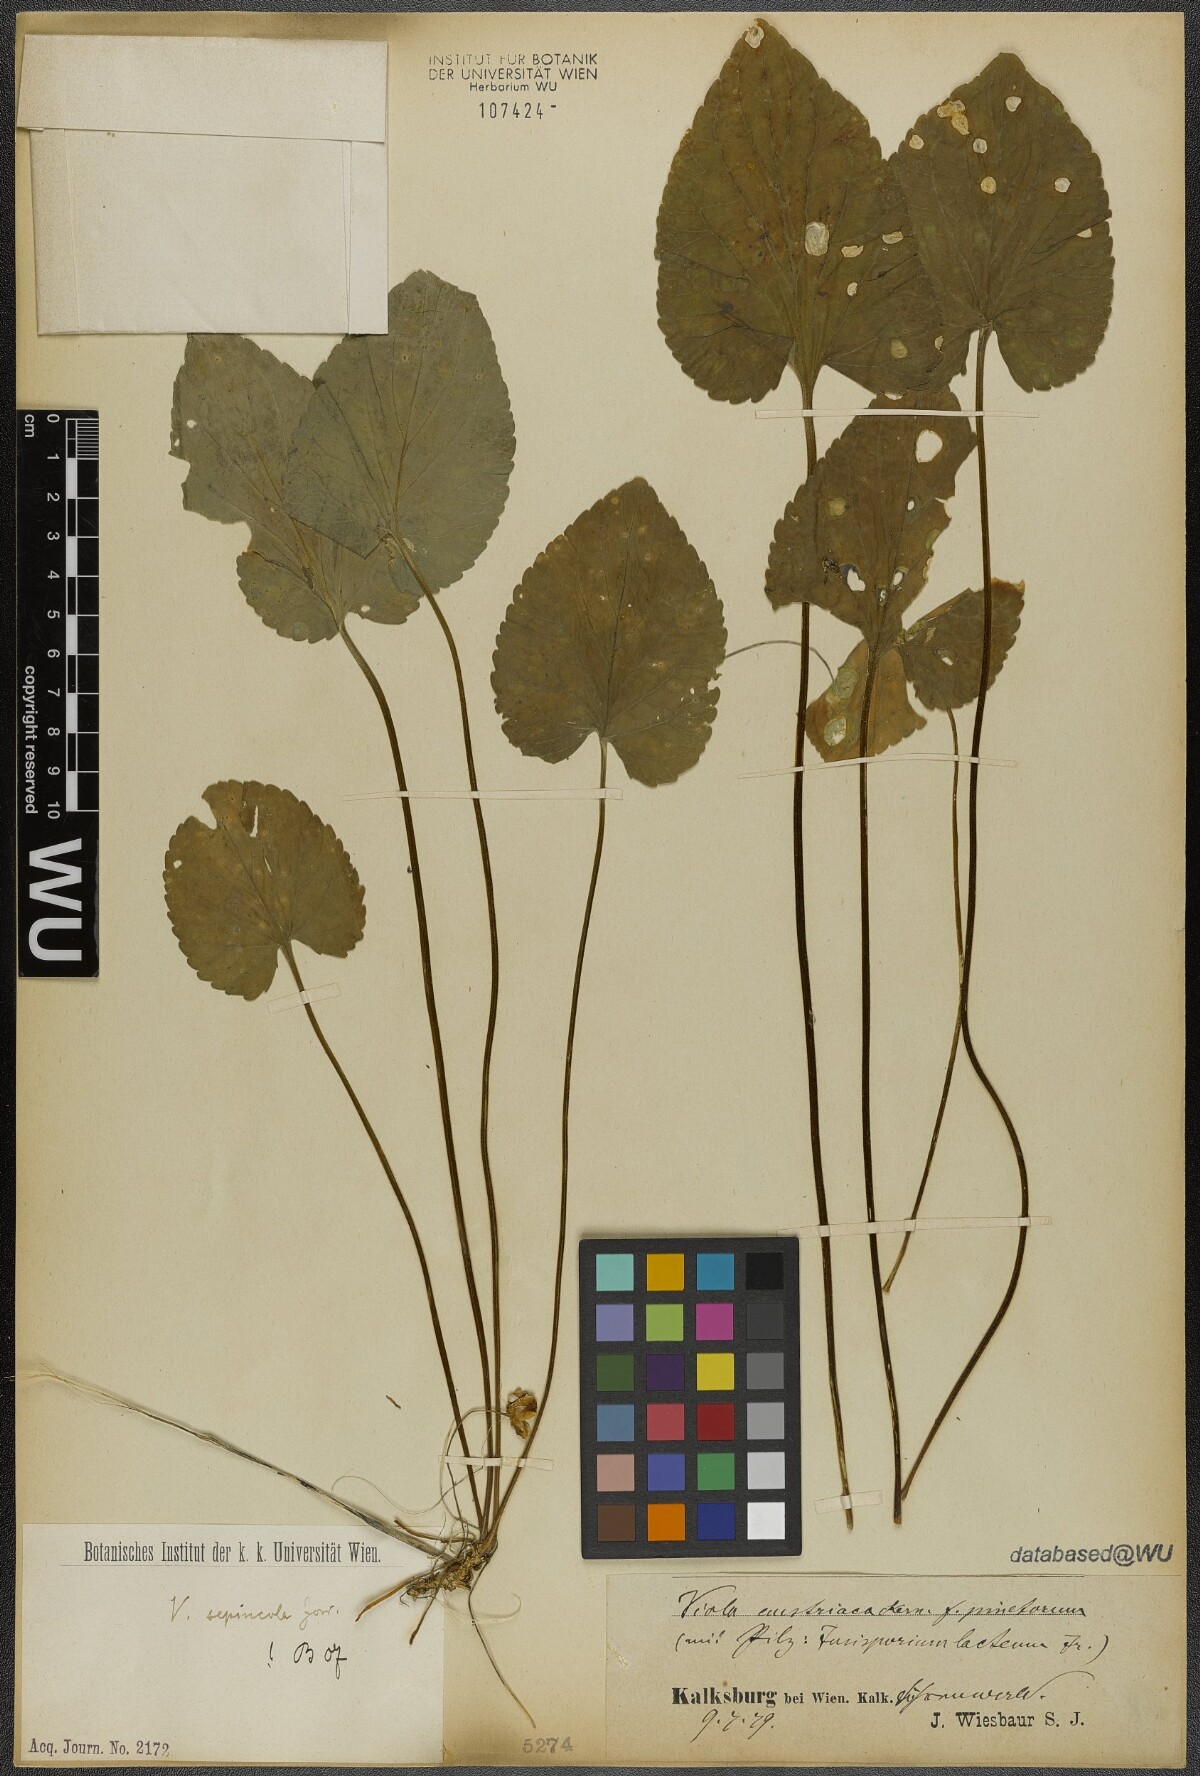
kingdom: Plantae
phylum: Tracheophyta
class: Magnoliopsida
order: Malpighiales
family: Violaceae
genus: Viola
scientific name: Viola suavis
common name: Russian violet
